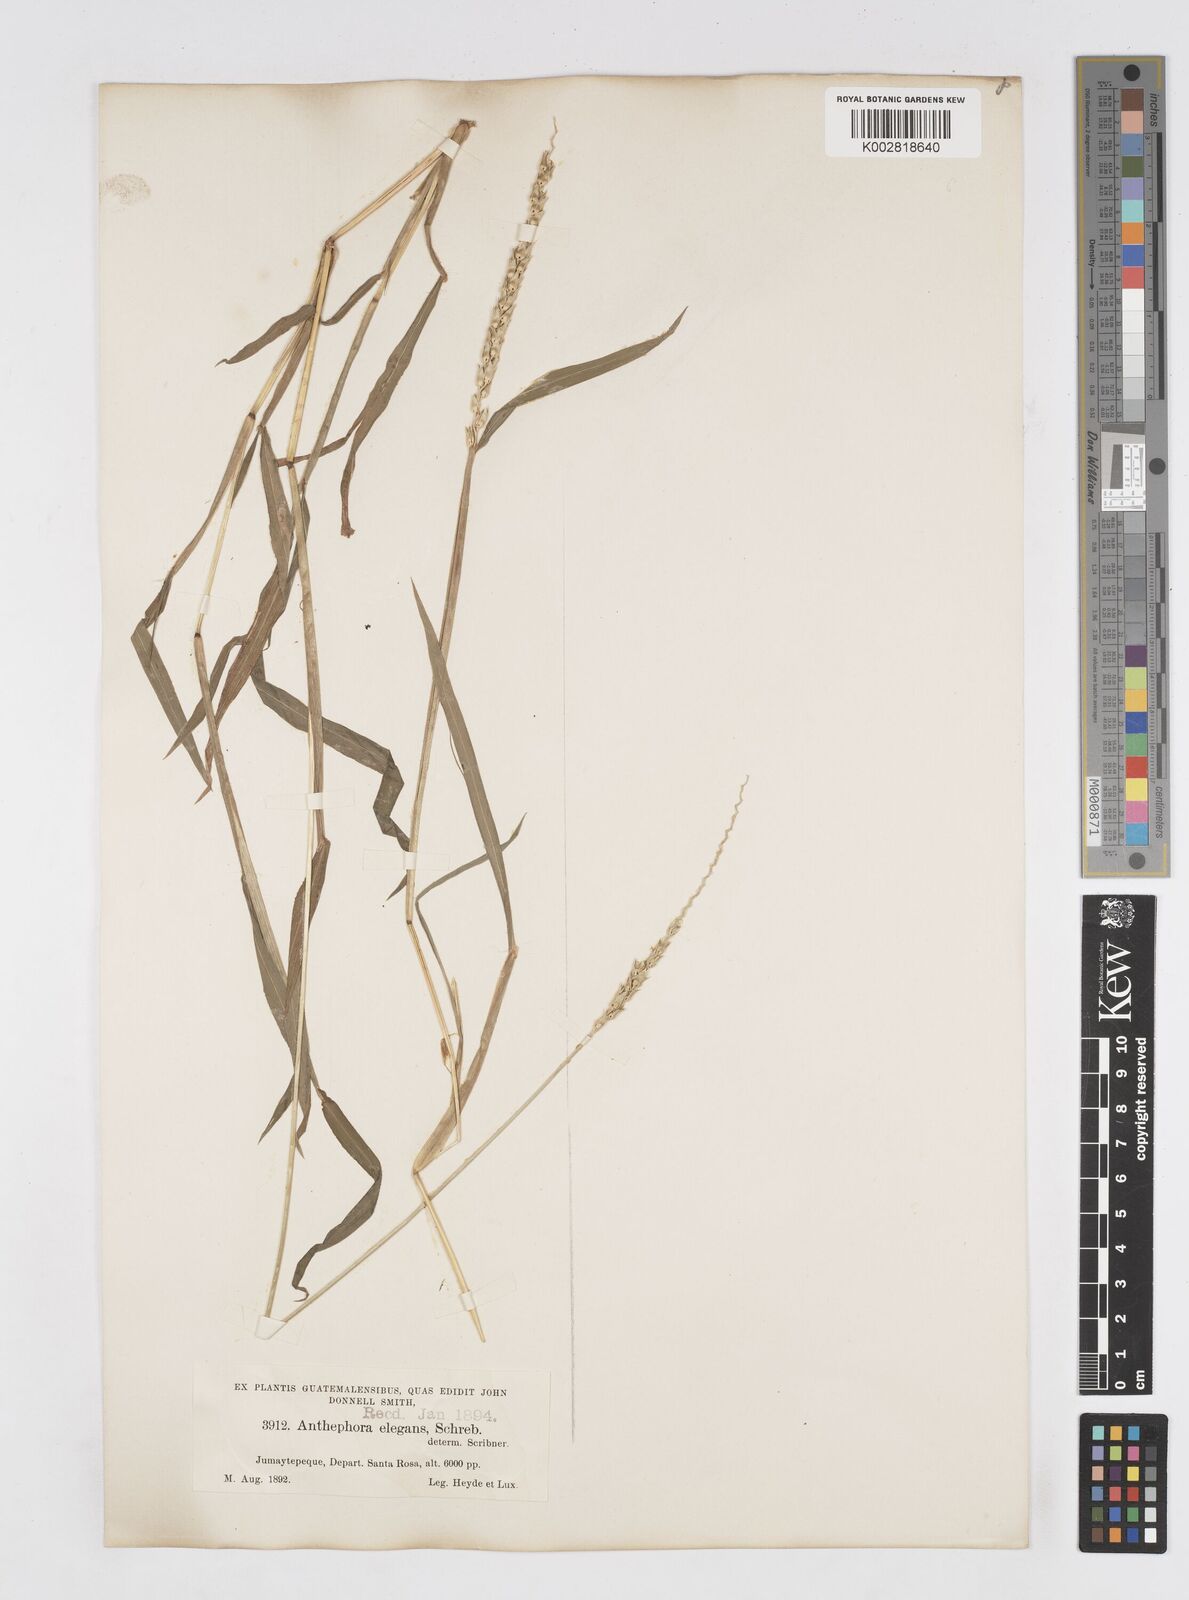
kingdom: Plantae
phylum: Tracheophyta
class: Liliopsida
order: Poales
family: Poaceae
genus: Anthephora
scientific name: Anthephora hermaphrodita
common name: Oldfield grass
